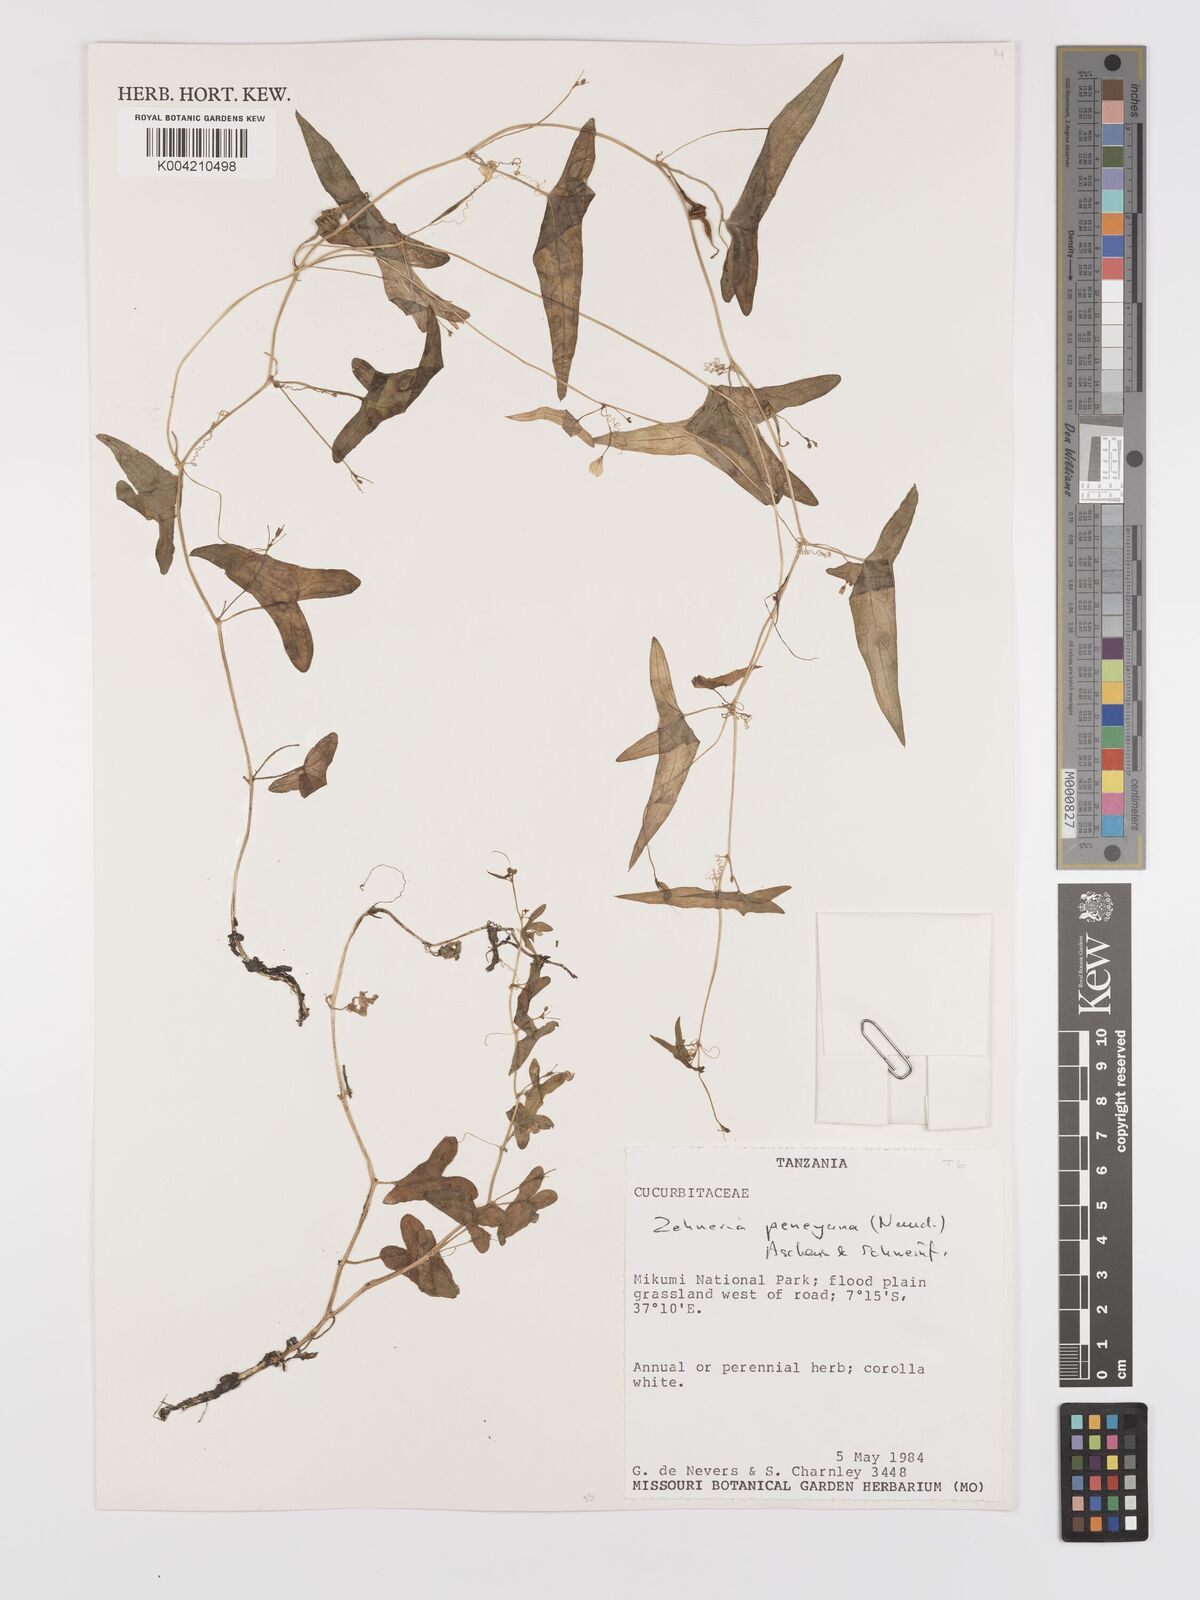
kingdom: Plantae
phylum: Tracheophyta
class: Magnoliopsida
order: Cucurbitales
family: Cucurbitaceae
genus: Zehneria
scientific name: Zehneria peneyana
